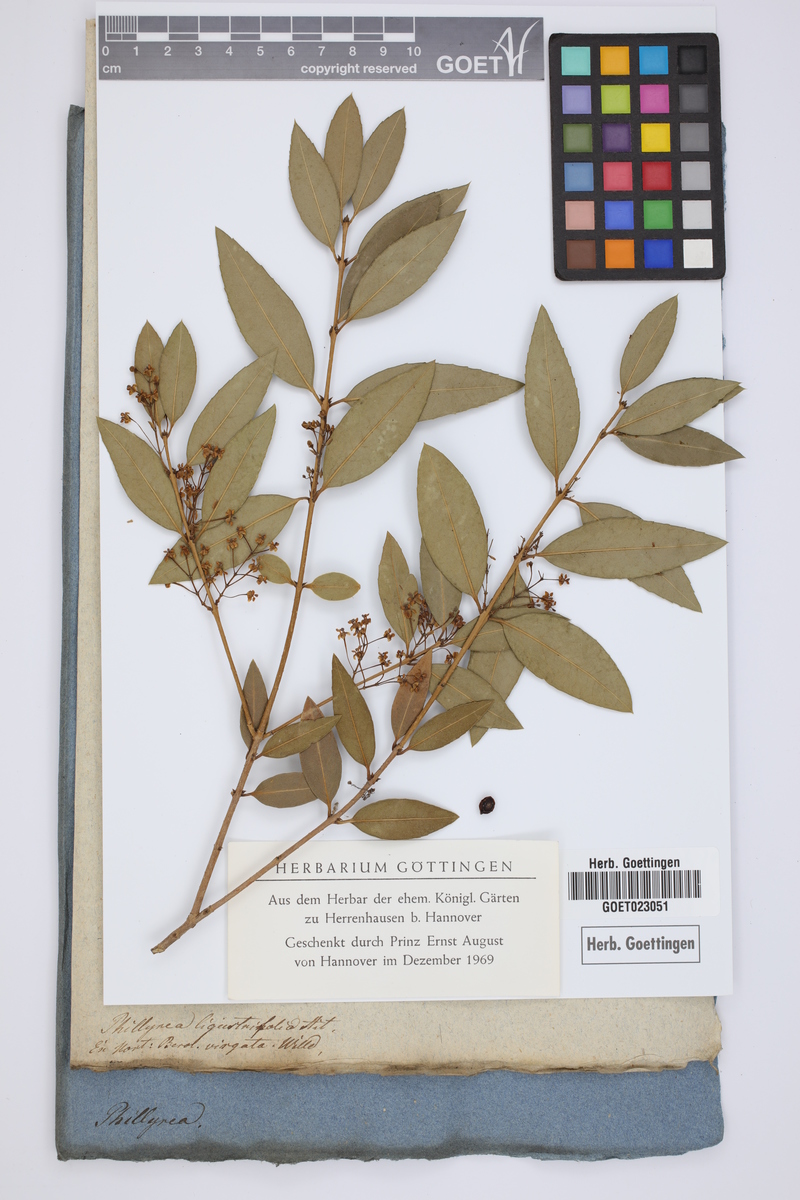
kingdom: Plantae
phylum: Tracheophyta
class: Magnoliopsida
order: Lamiales
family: Oleaceae
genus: Phillyrea
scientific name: Phillyrea latifolia
